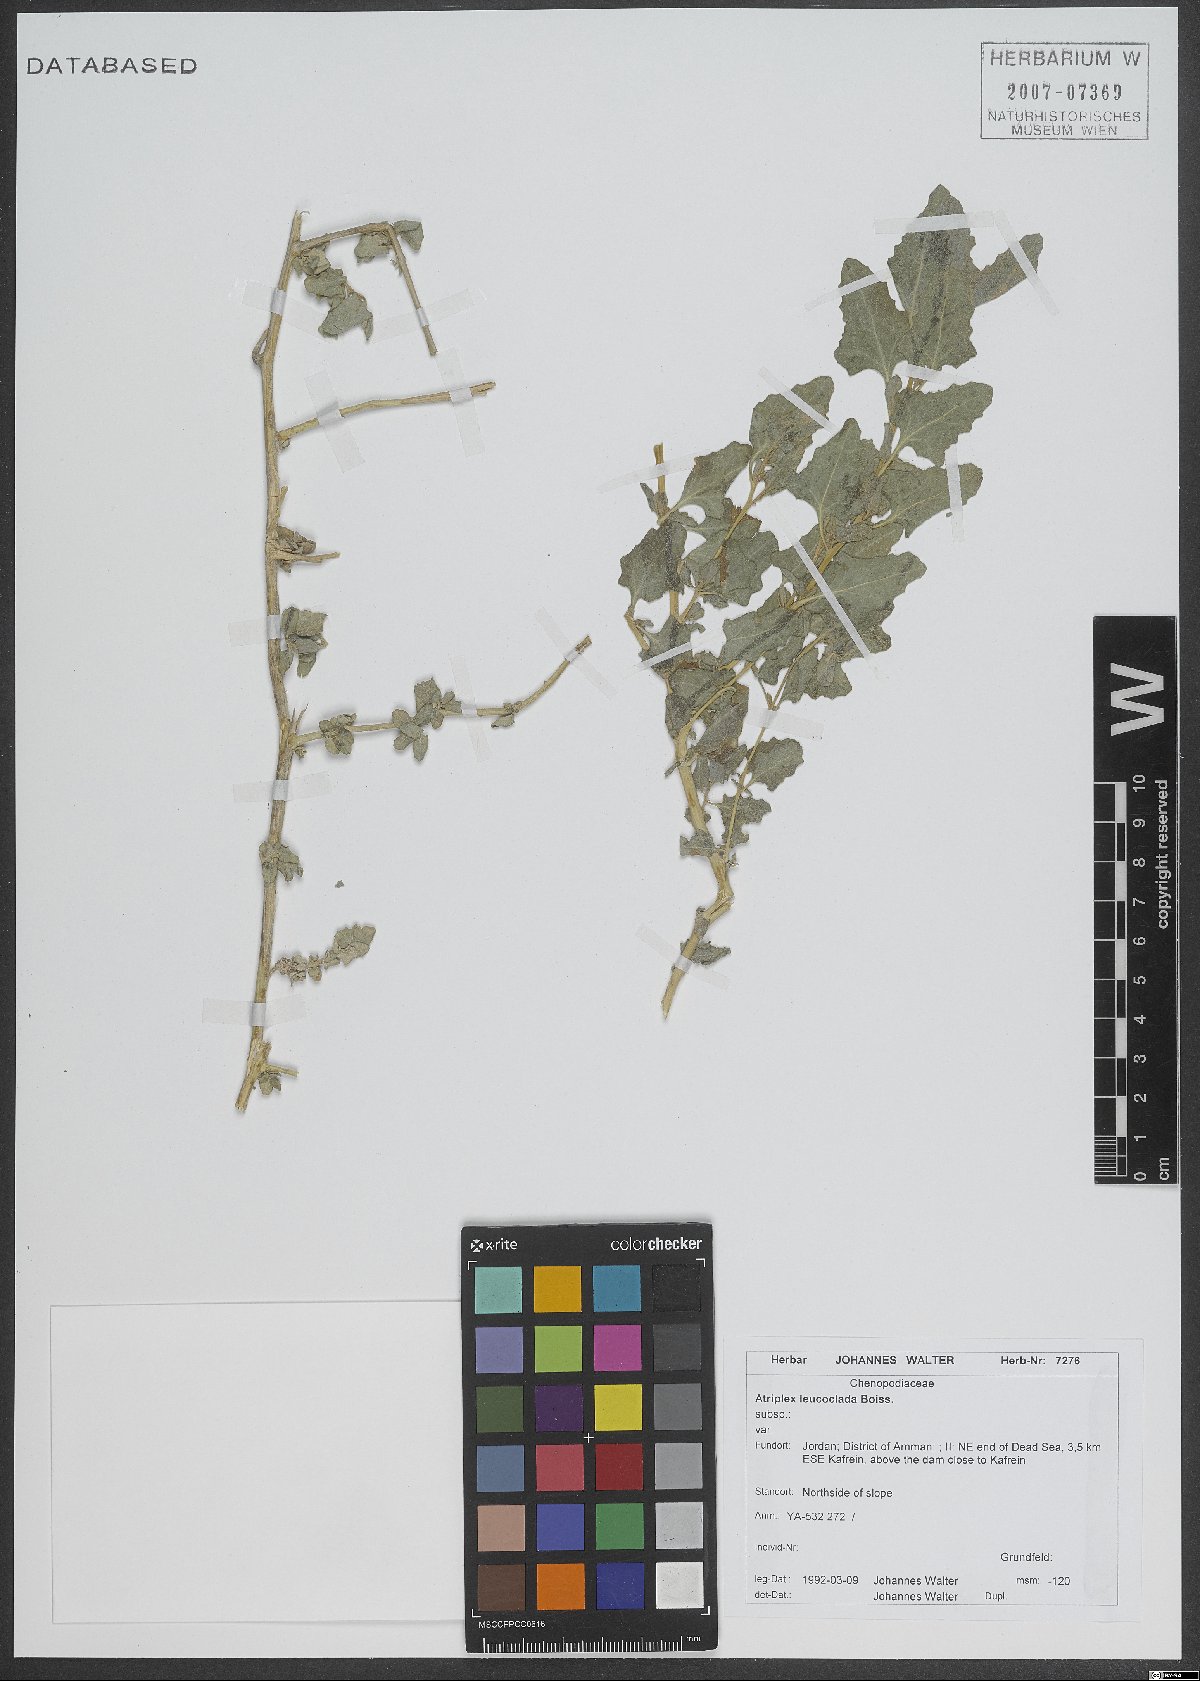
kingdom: Plantae
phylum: Tracheophyta
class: Magnoliopsida
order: Caryophyllales
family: Amaranthaceae
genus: Atriplex
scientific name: Atriplex turcomanica
